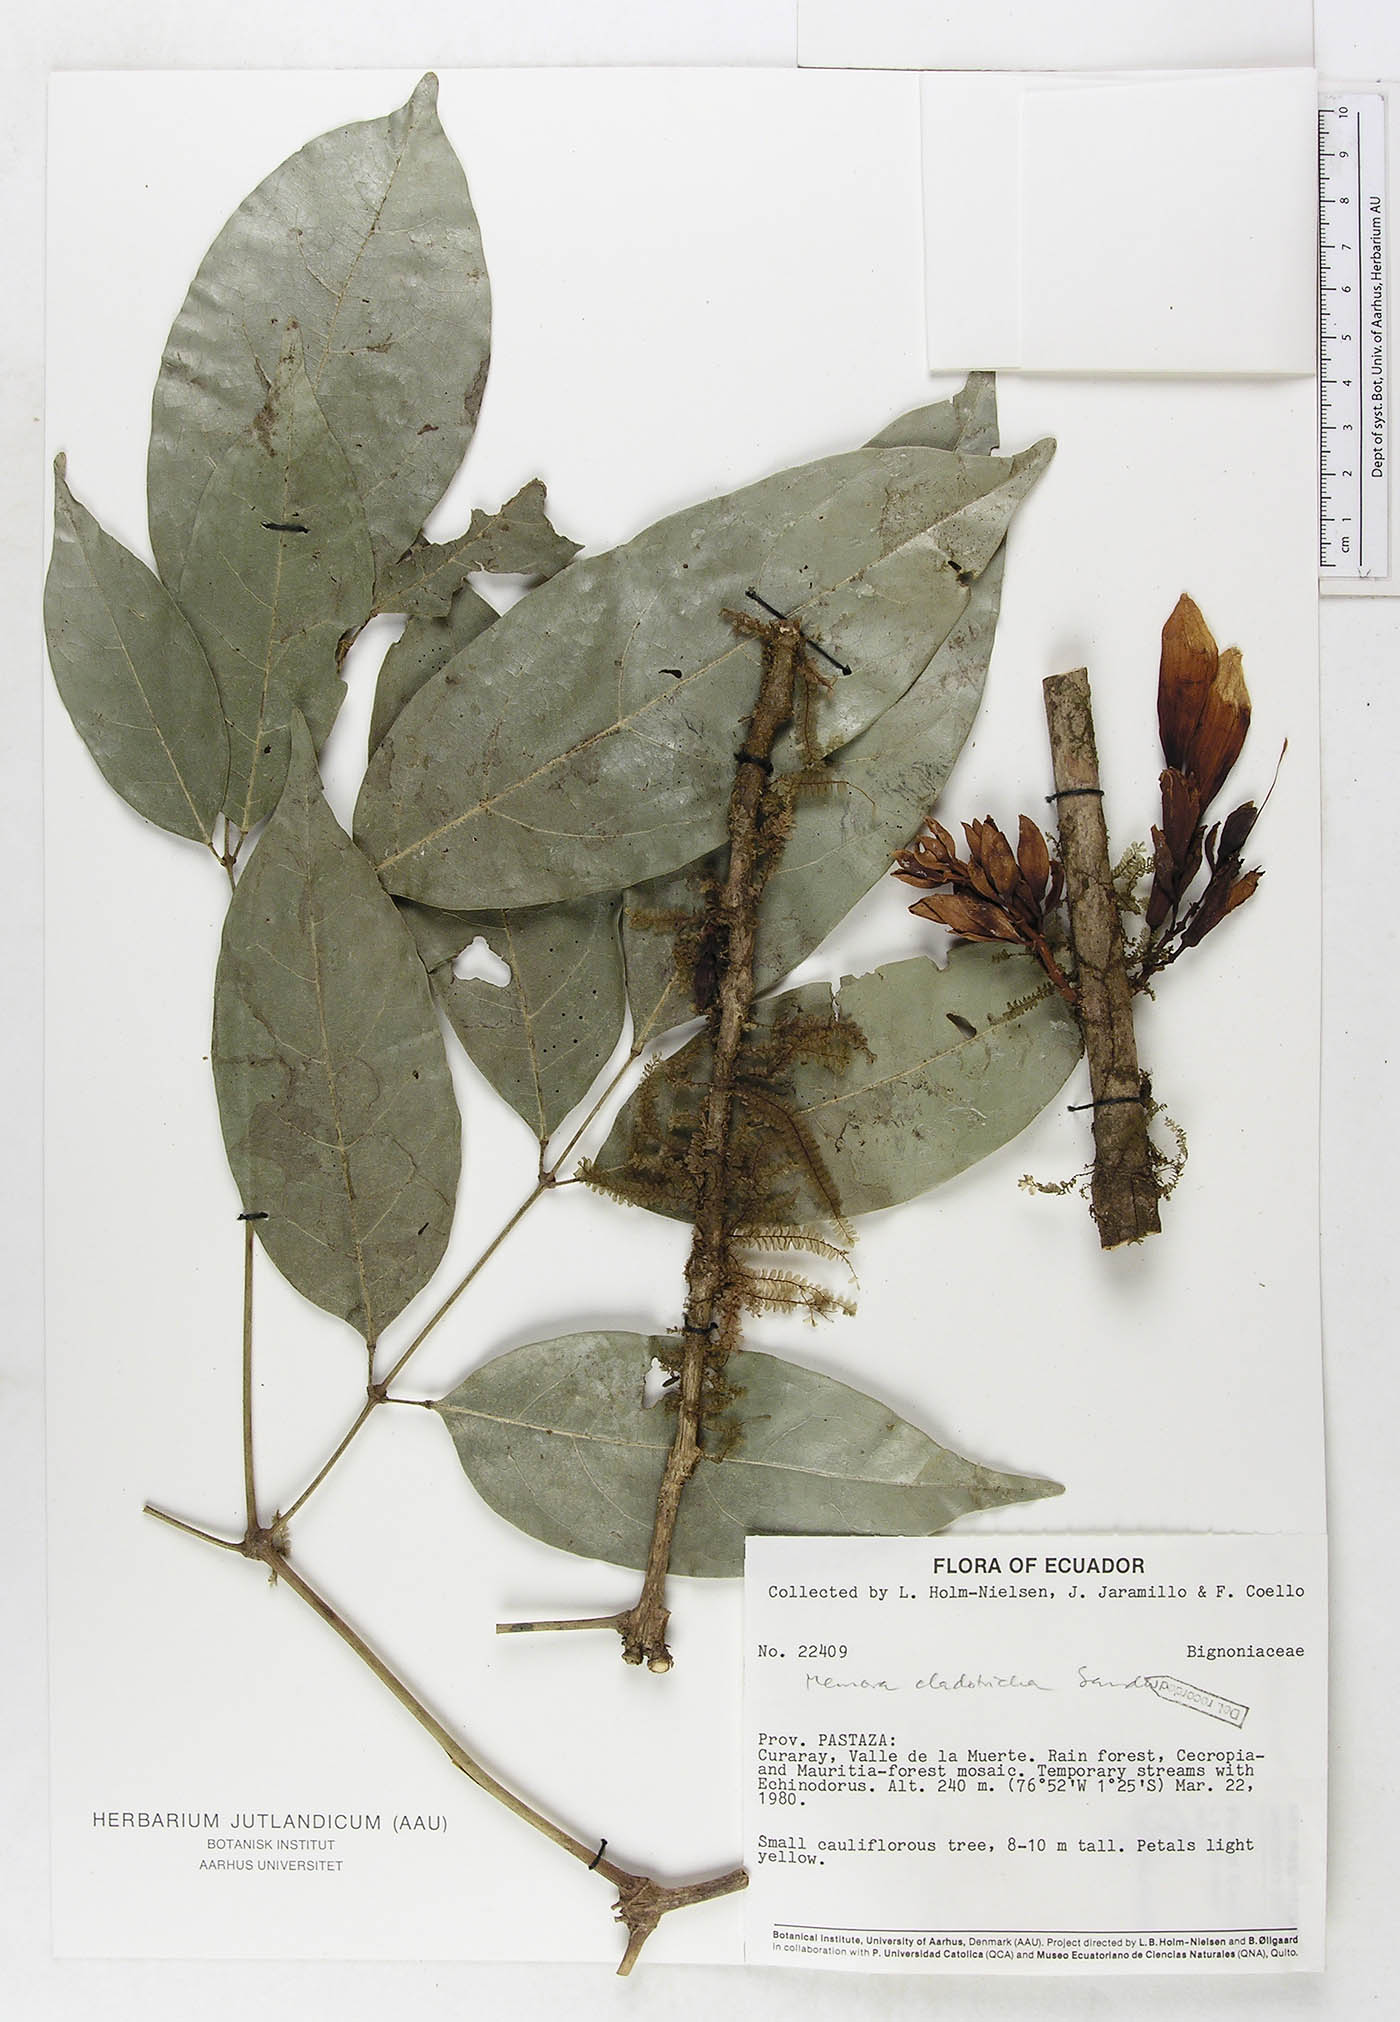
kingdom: Plantae
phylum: Tracheophyta
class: Magnoliopsida
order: Lamiales
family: Bignoniaceae
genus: Adenocalymma
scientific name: Adenocalymma cladotrichum
